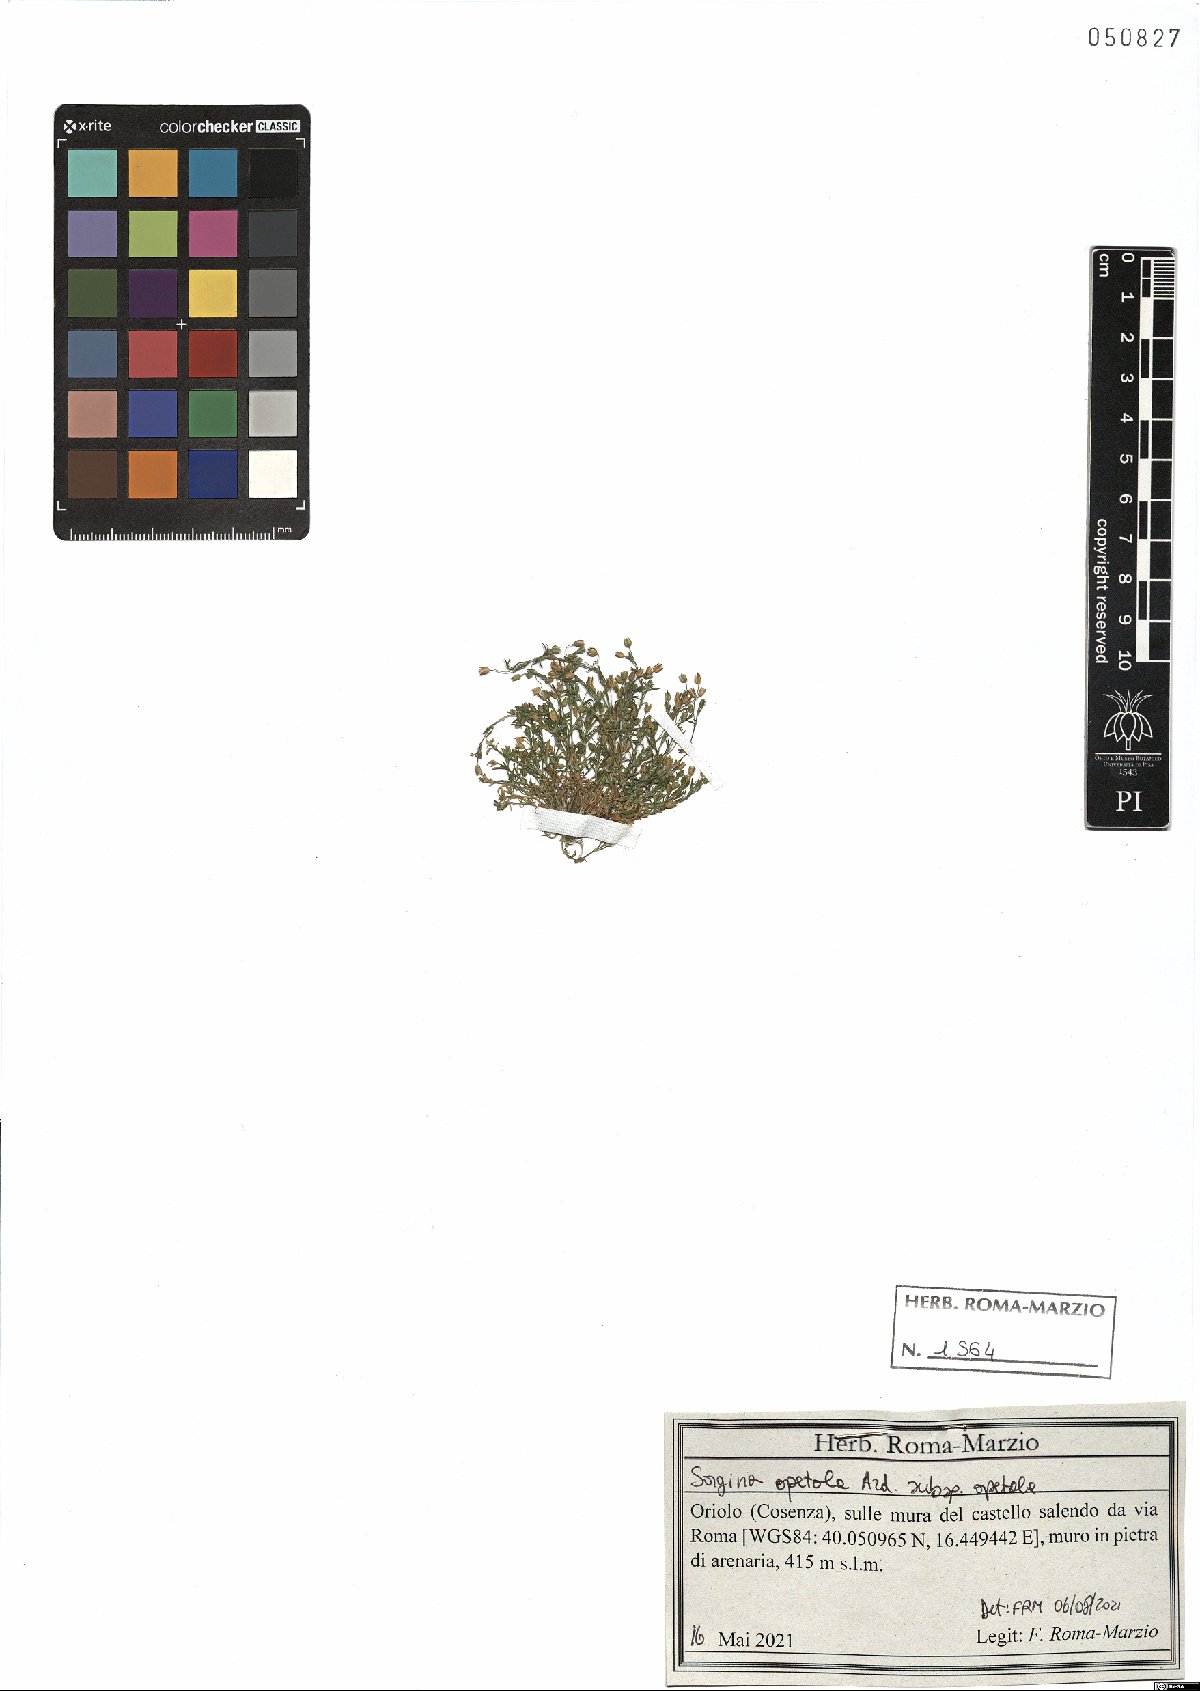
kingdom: Plantae
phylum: Tracheophyta
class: Magnoliopsida
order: Caryophyllales
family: Caryophyllaceae
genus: Sagina
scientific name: Sagina apetala
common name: Annual pearlwort
